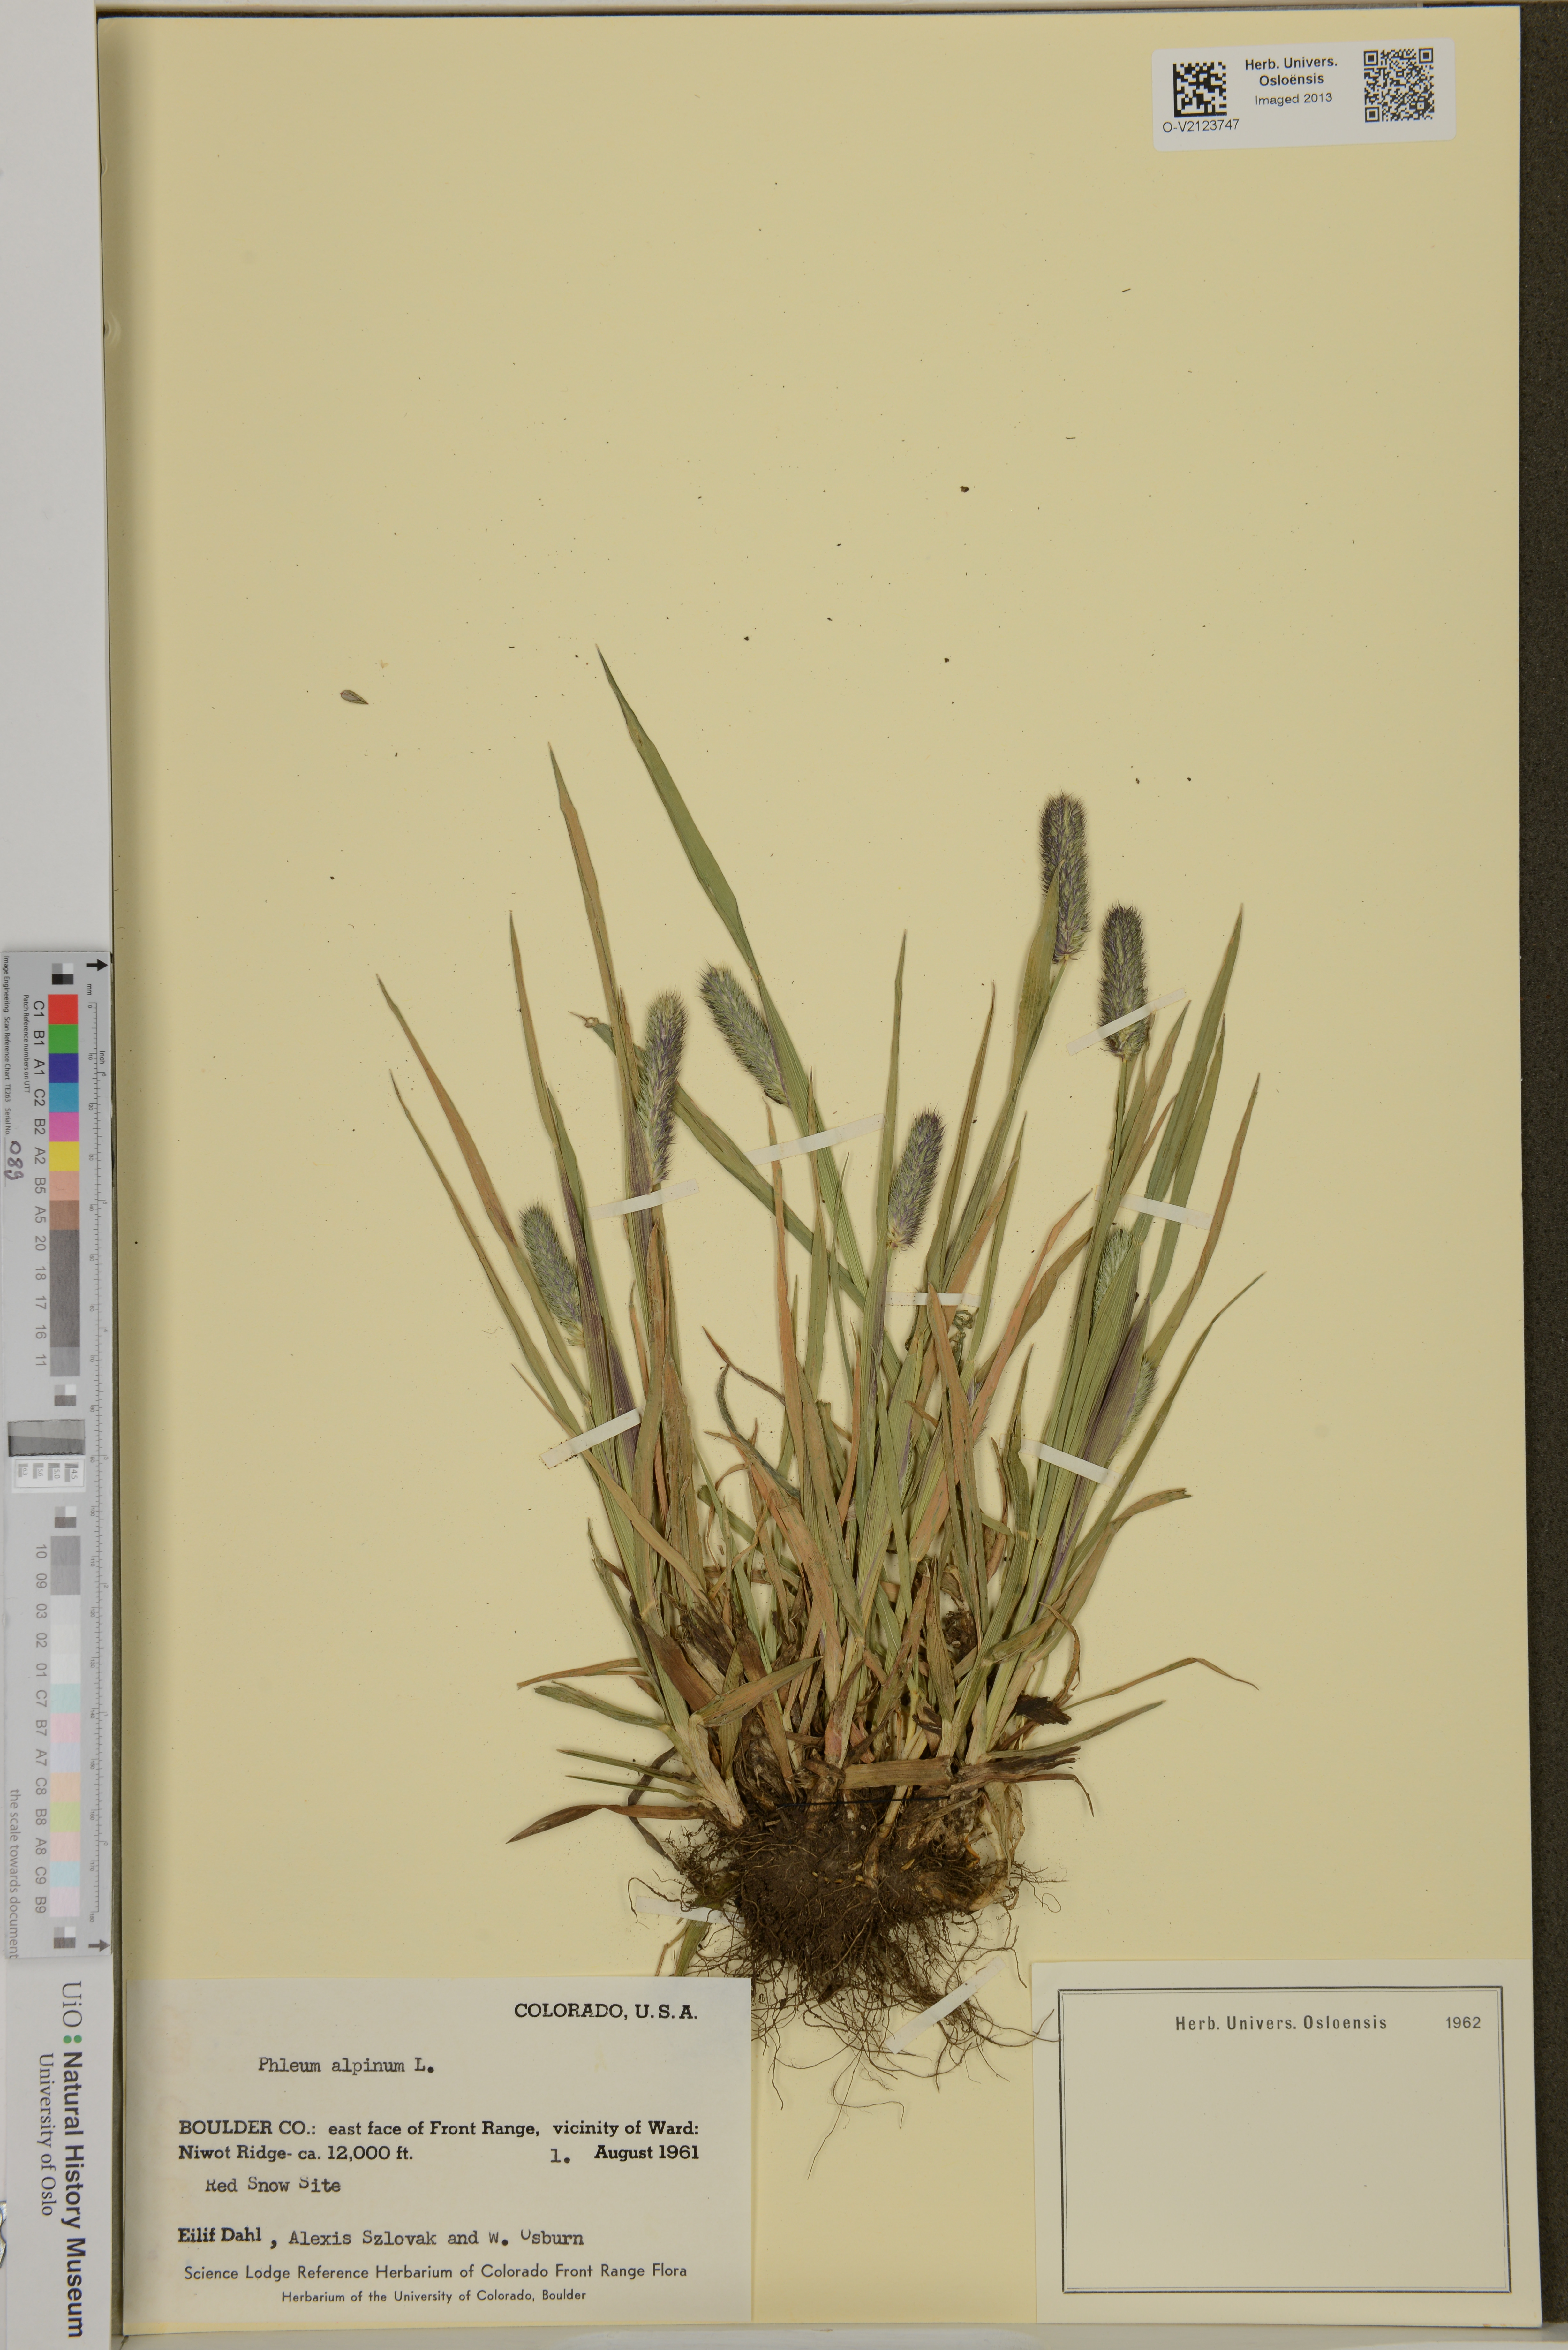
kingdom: Plantae
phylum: Tracheophyta
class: Liliopsida
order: Poales
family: Poaceae
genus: Phleum
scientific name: Phleum alpinum
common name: Alpine cat's-tail
